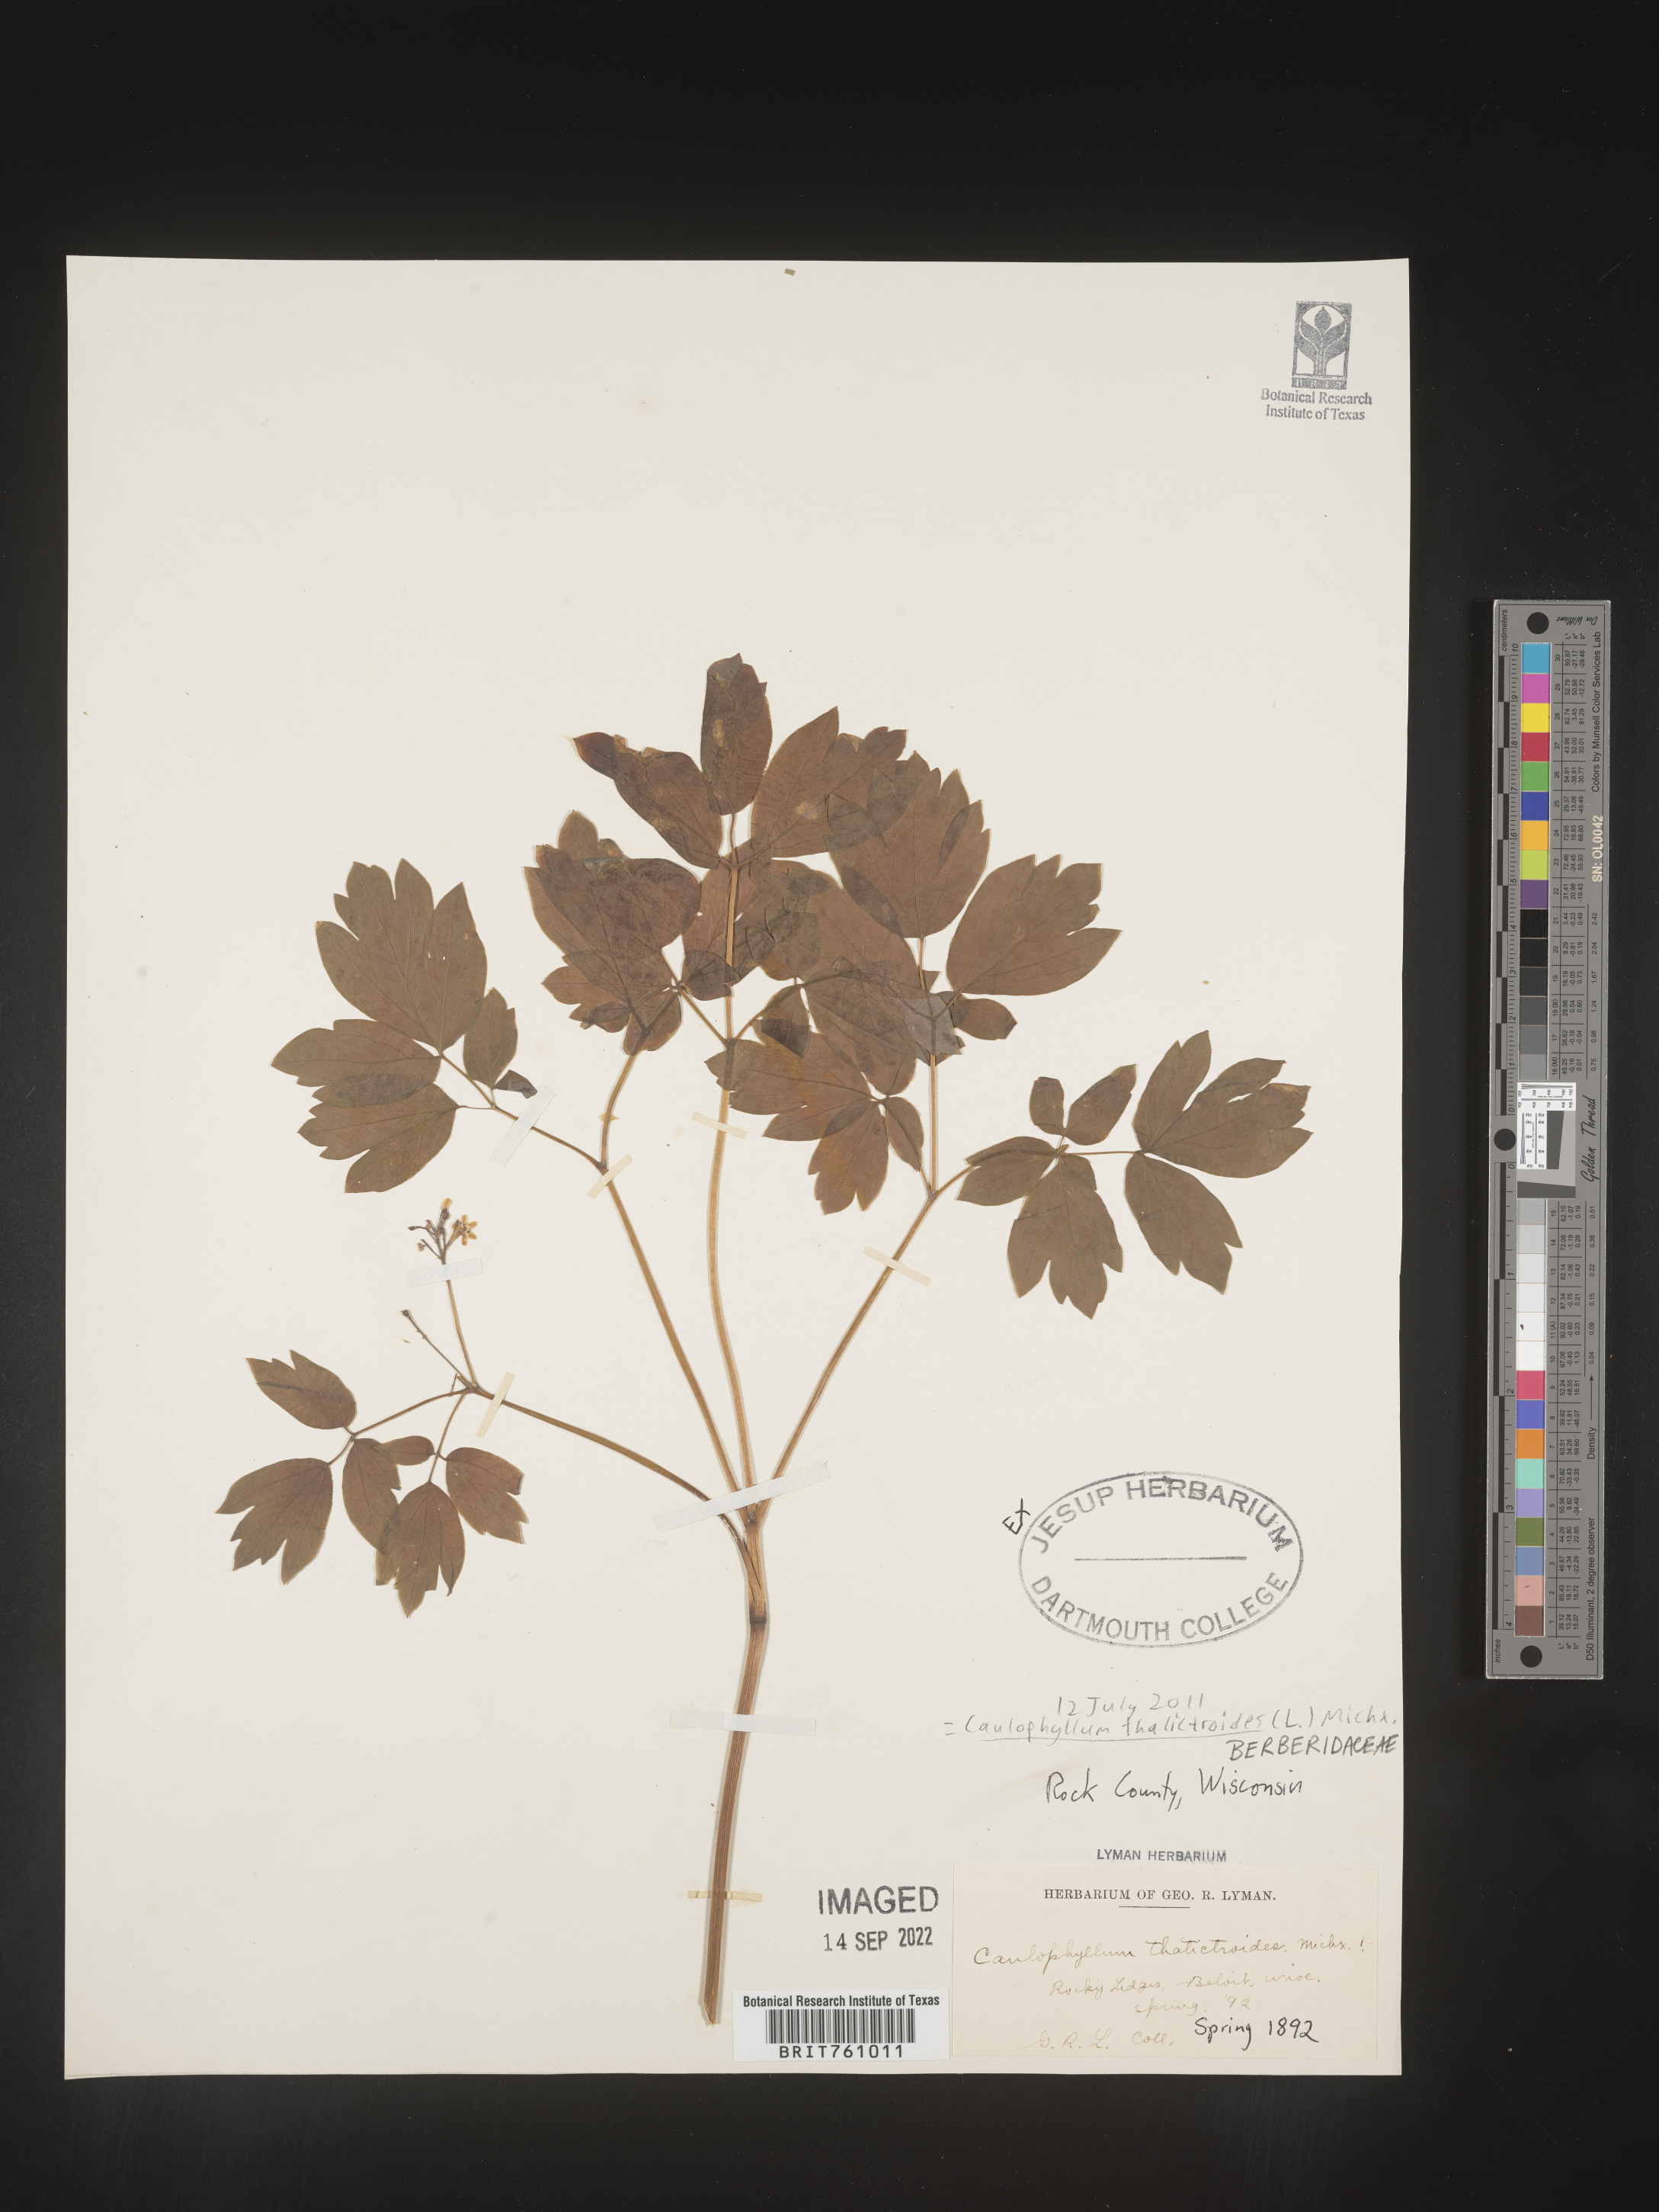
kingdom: Plantae
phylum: Tracheophyta
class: Magnoliopsida
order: Ranunculales
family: Berberidaceae
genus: Caulophyllum
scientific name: Caulophyllum thalictroides
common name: Blue cohosh
